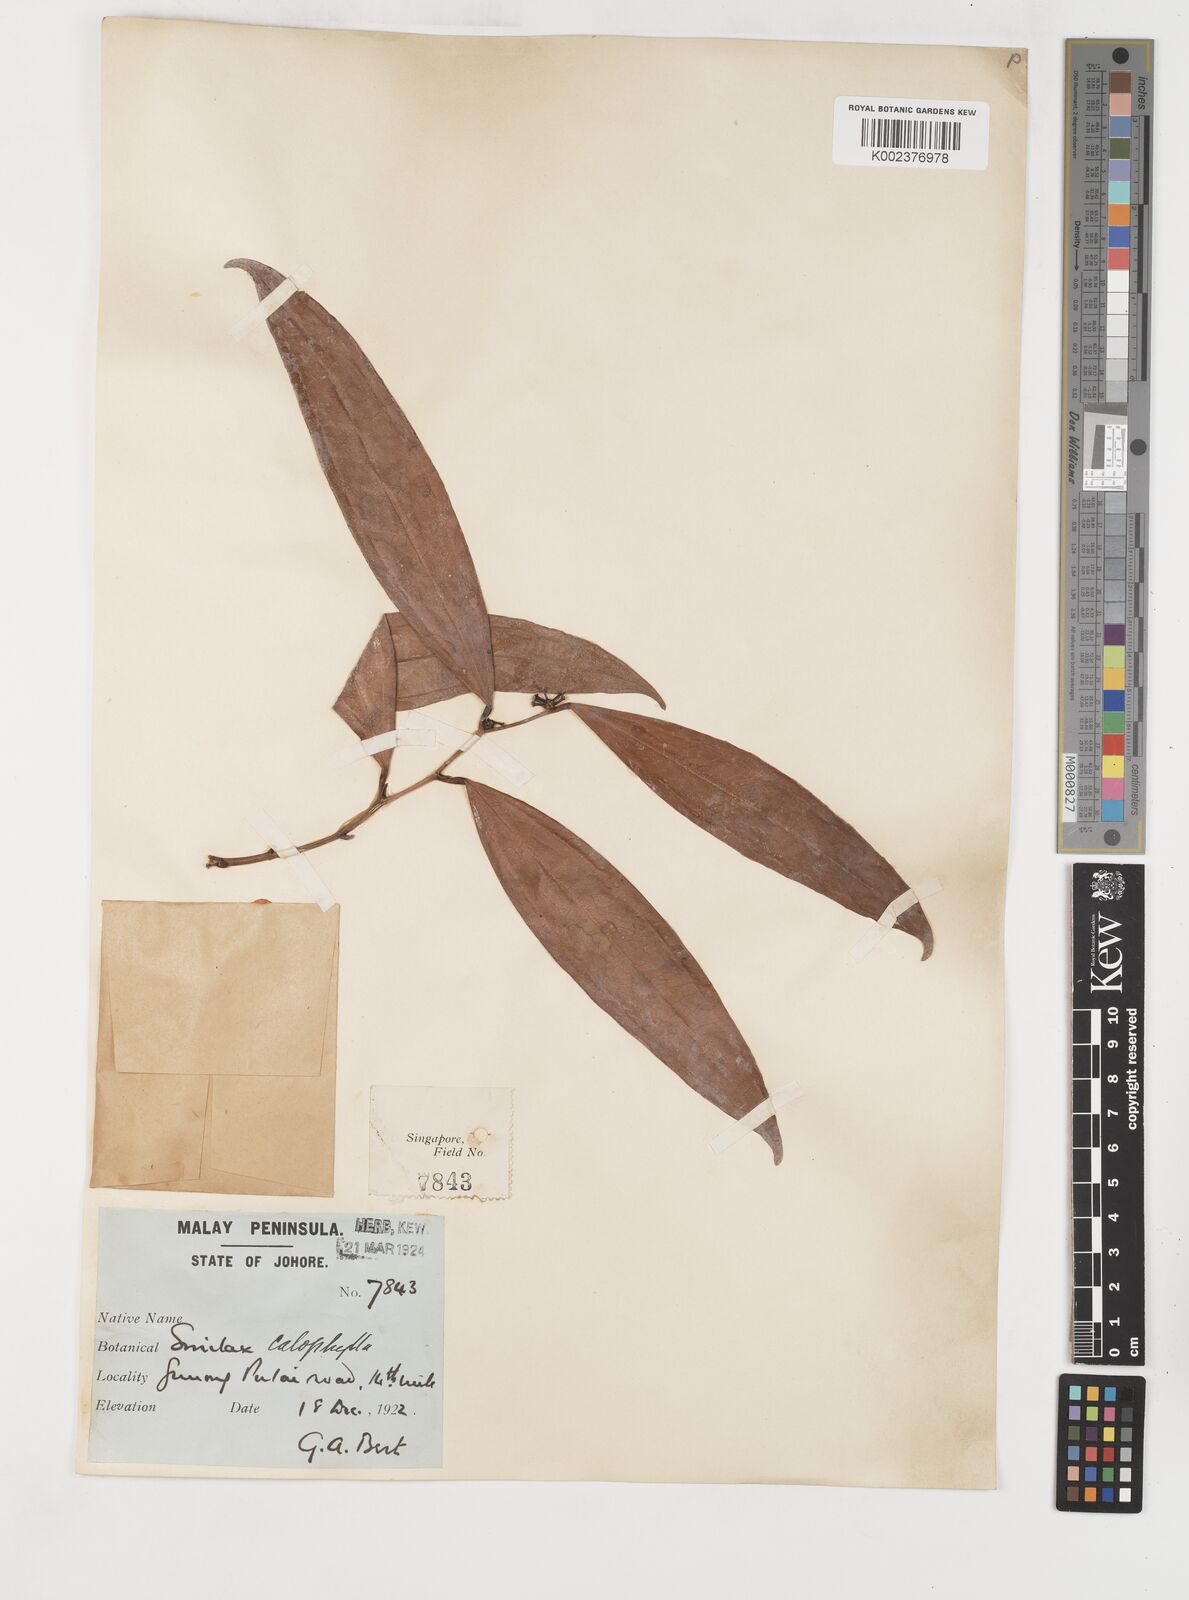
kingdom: Plantae
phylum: Tracheophyta
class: Liliopsida
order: Liliales
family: Smilacaceae
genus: Smilax
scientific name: Smilax calophylla
